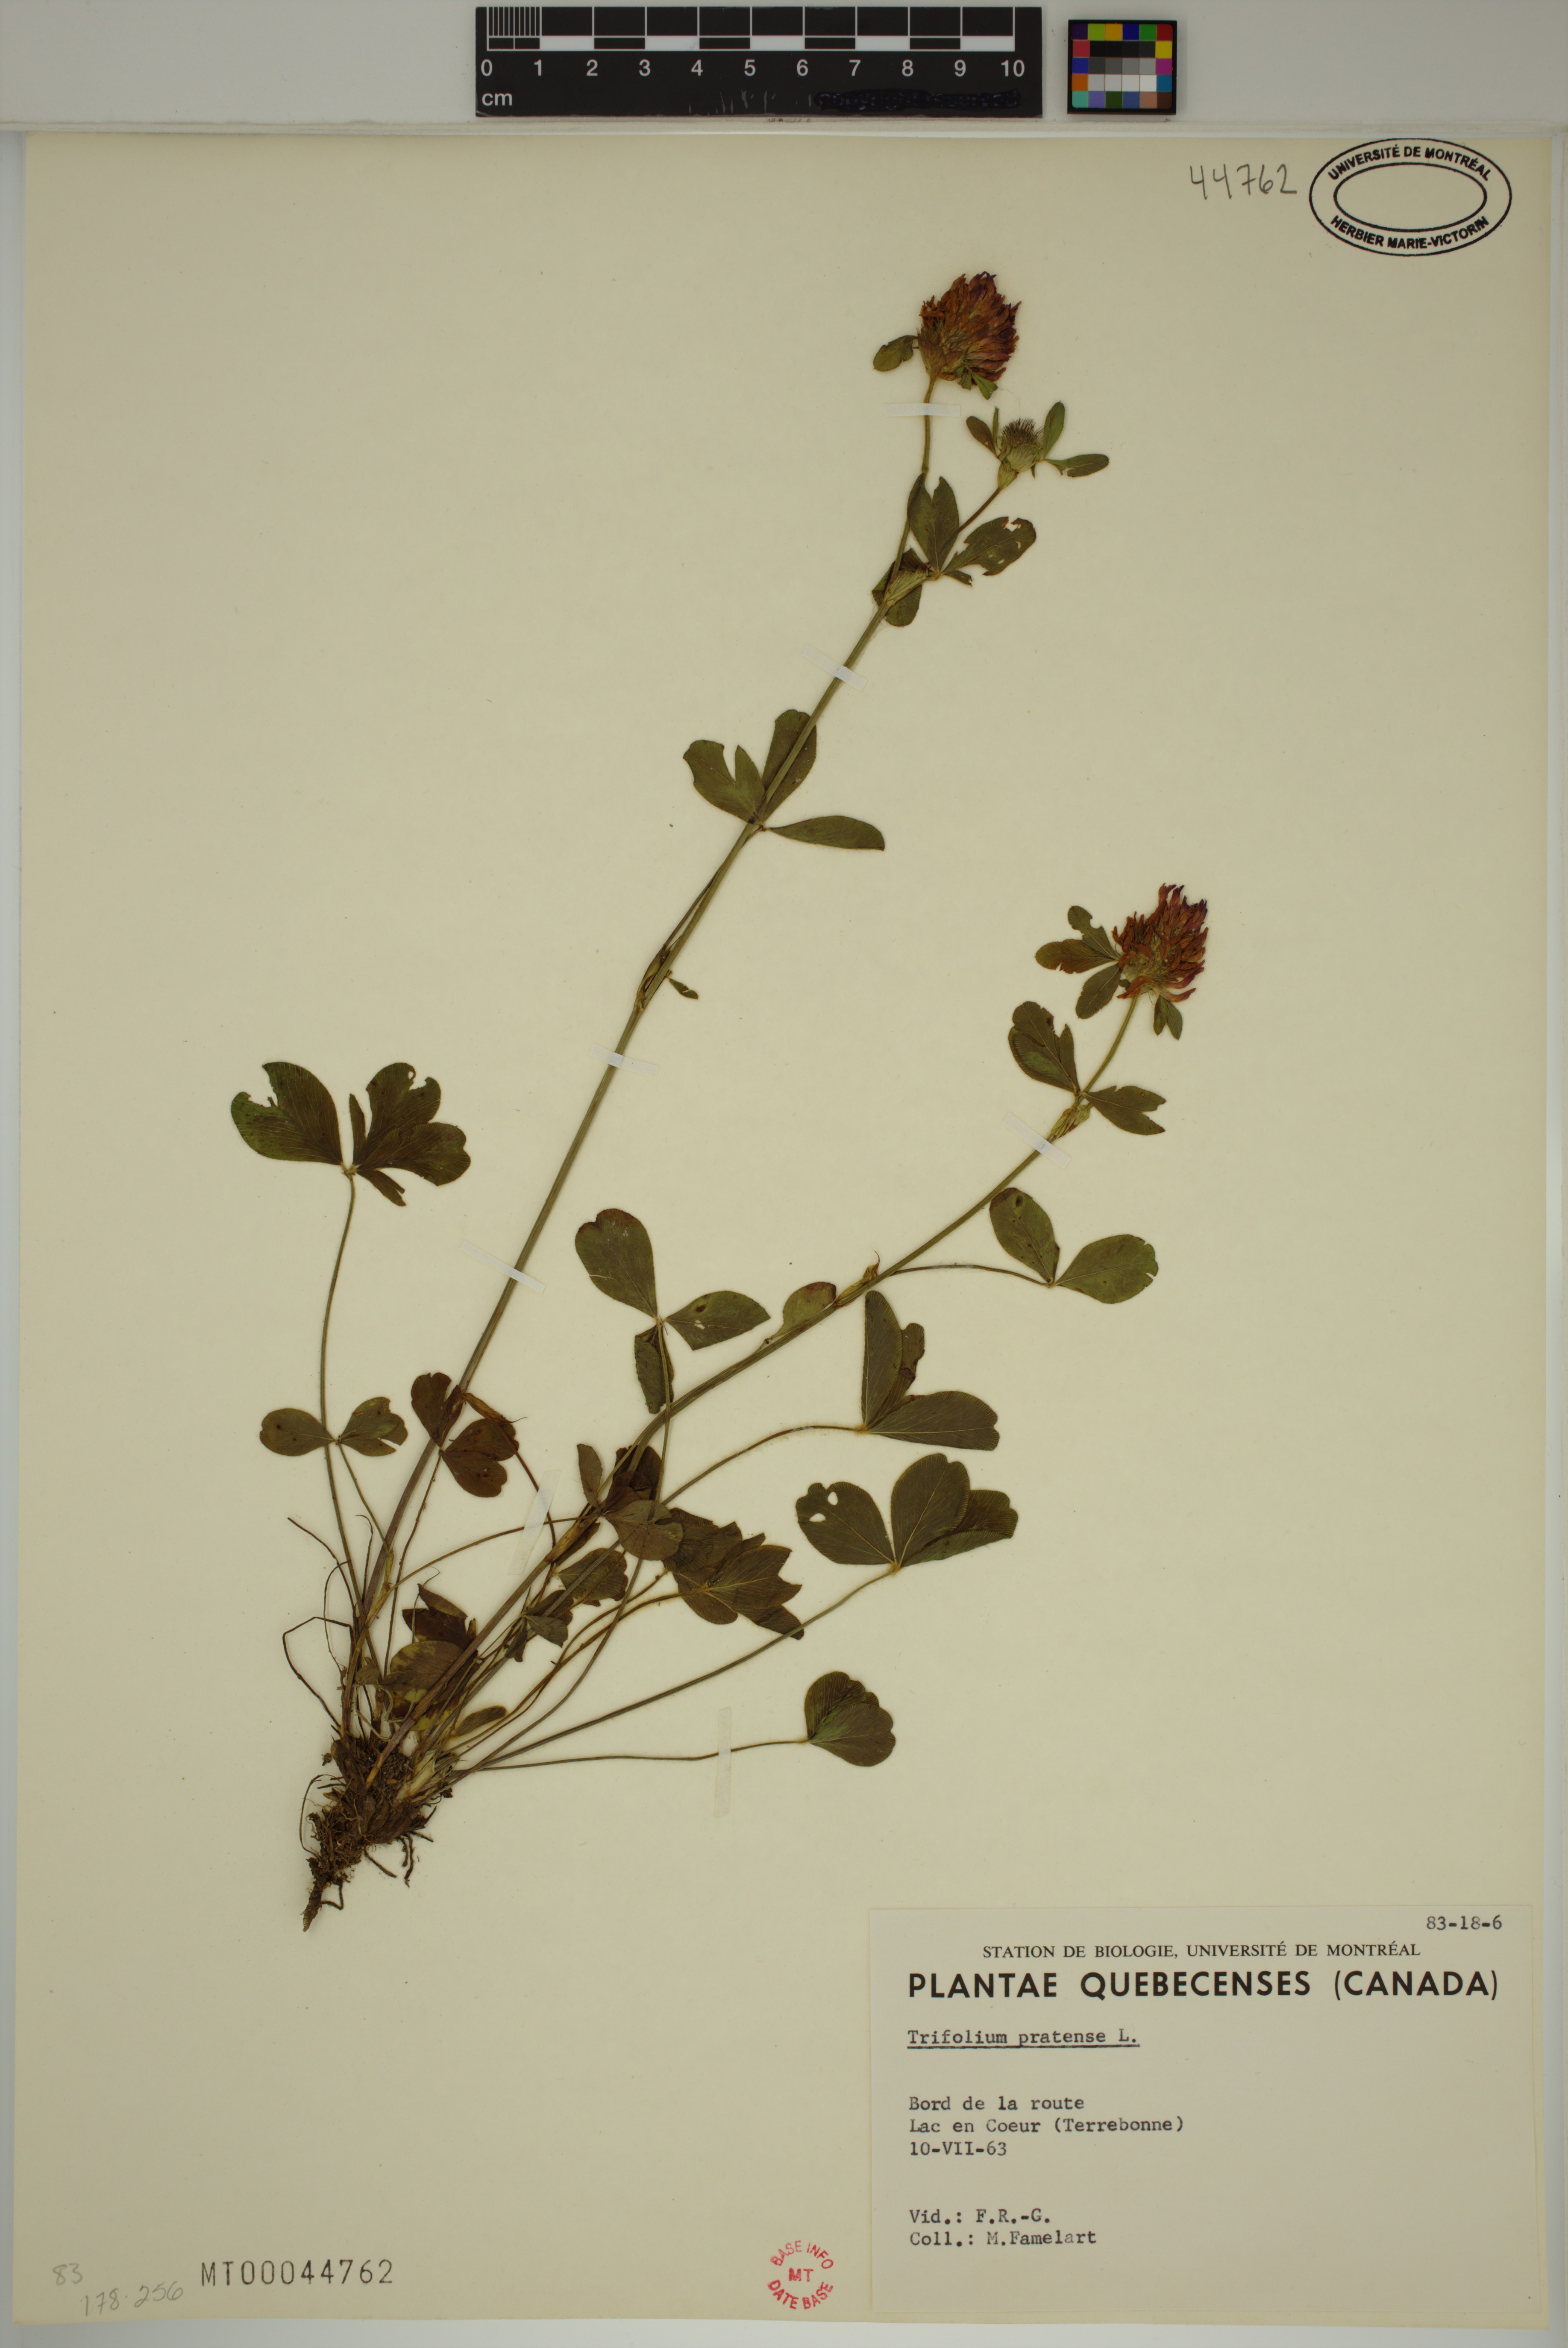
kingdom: Plantae
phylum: Tracheophyta
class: Magnoliopsida
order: Fabales
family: Fabaceae
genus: Trifolium
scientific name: Trifolium pratense
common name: Red clover
